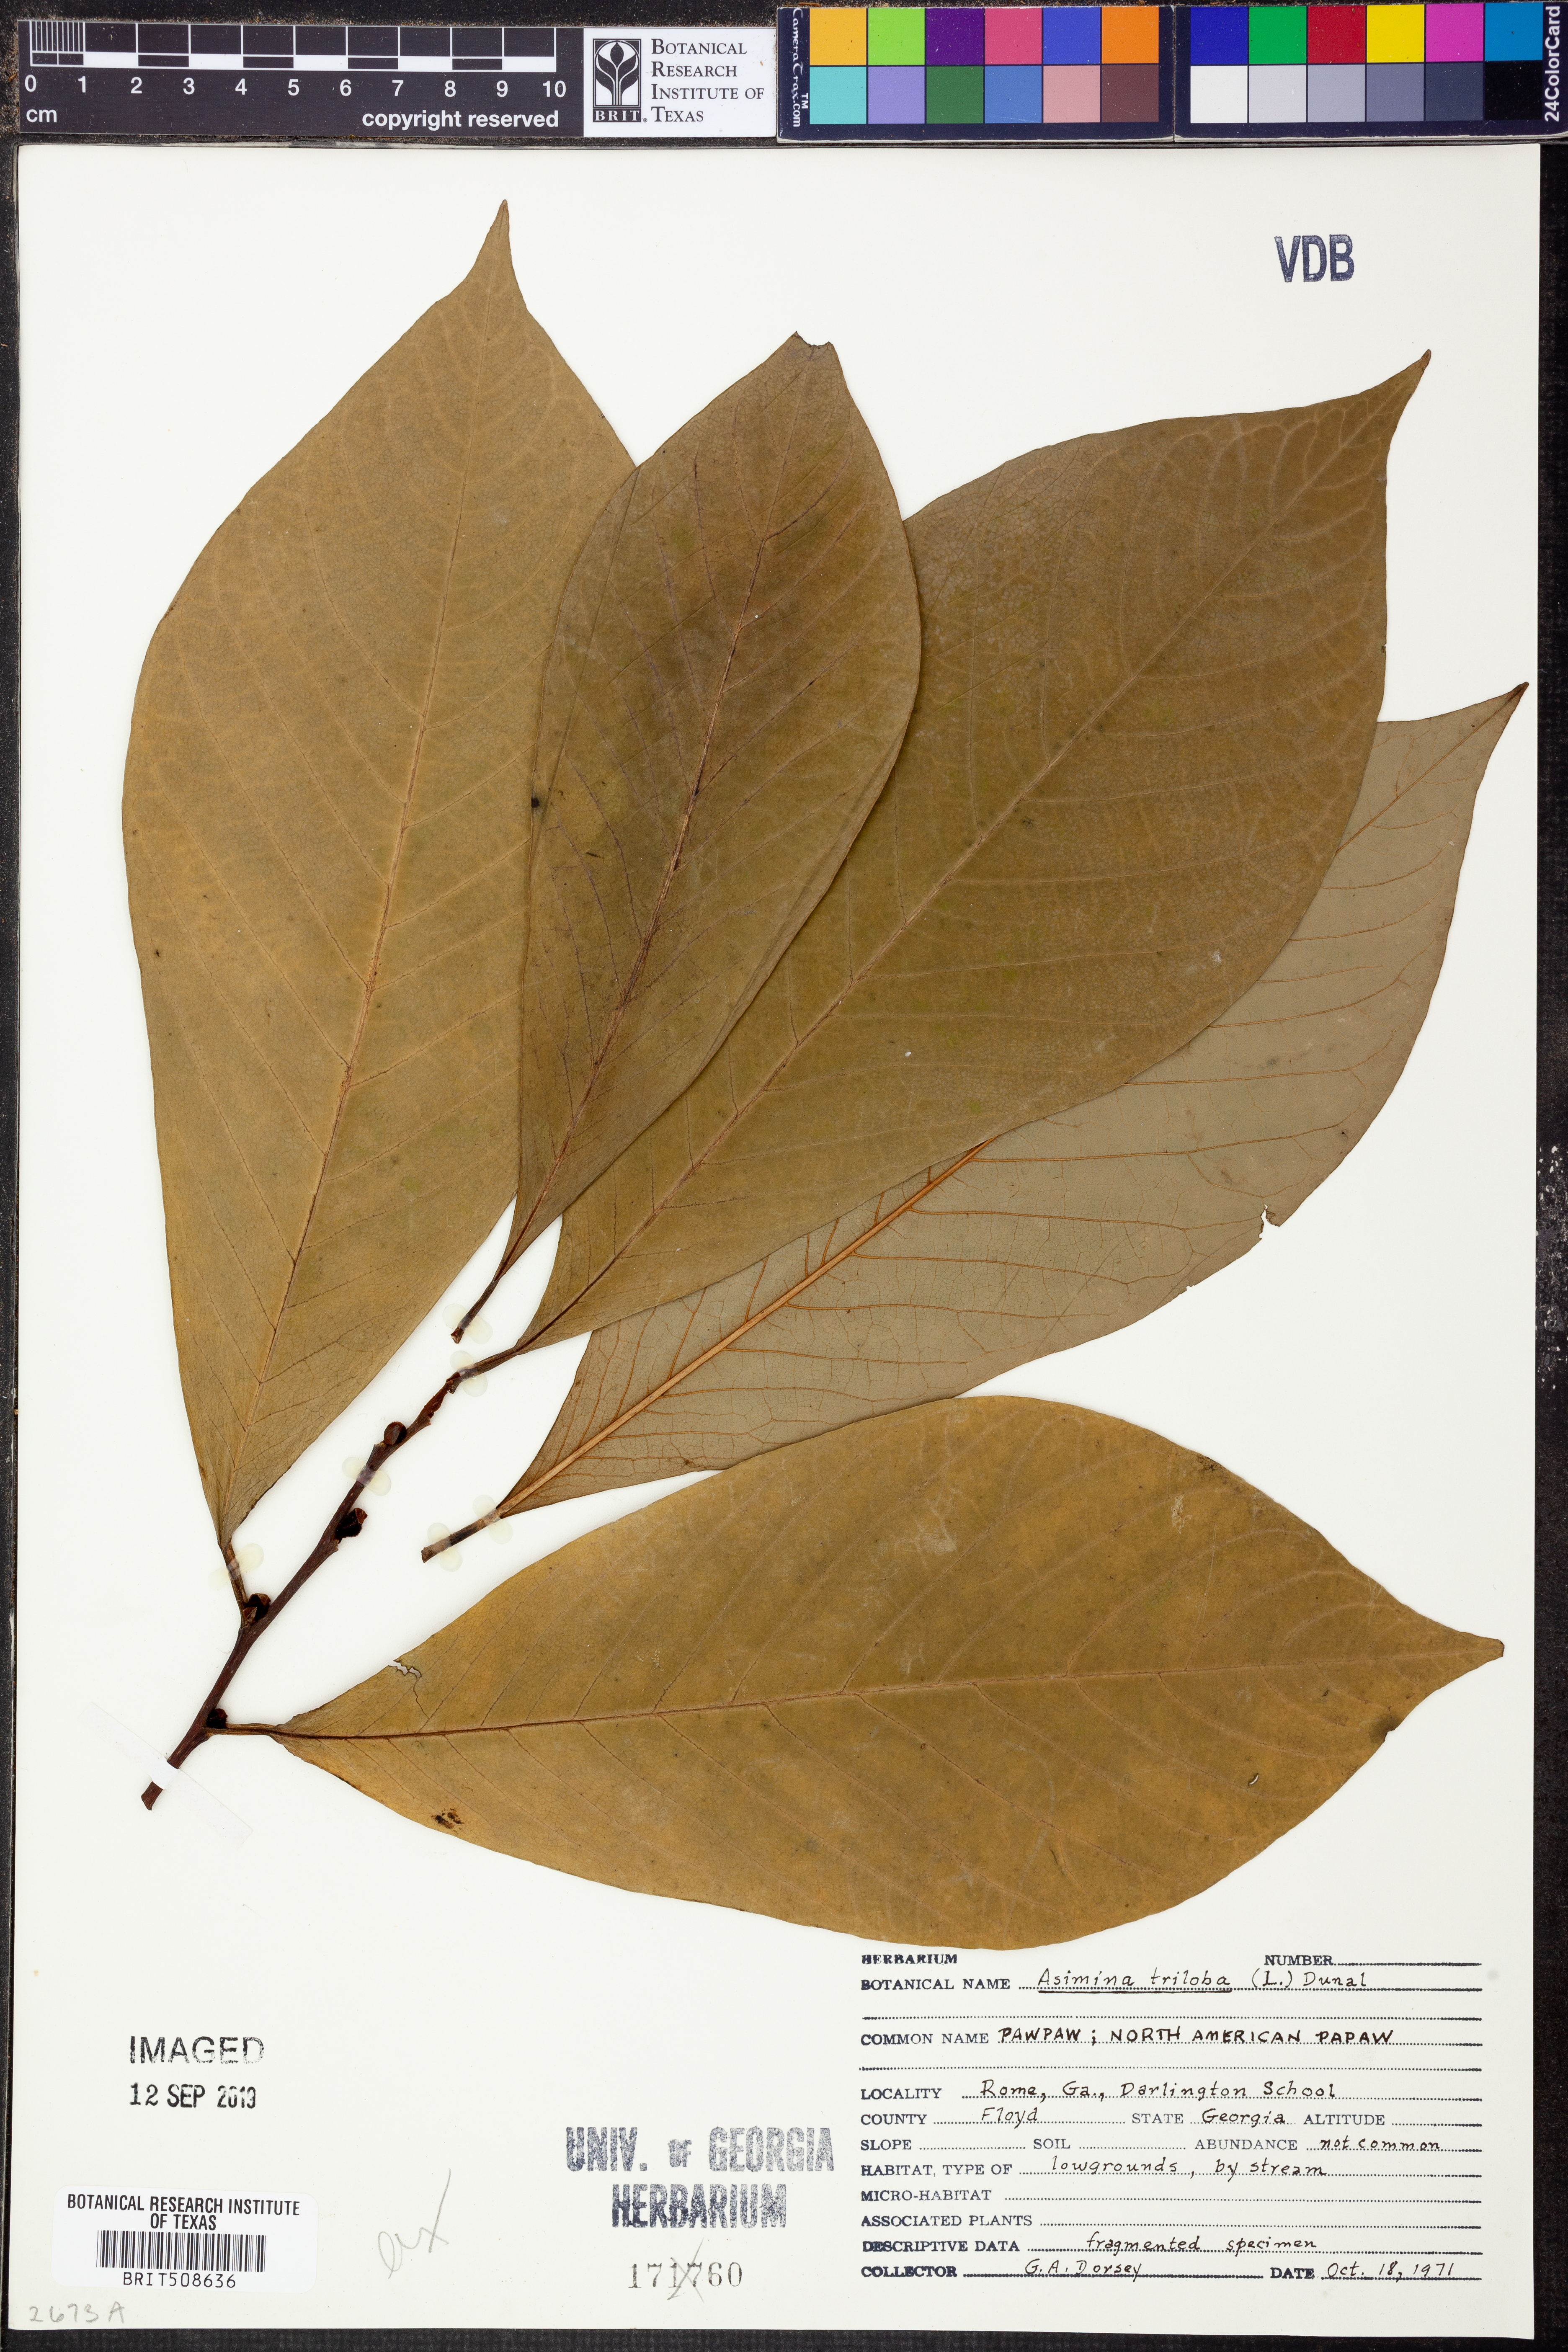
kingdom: Plantae
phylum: Tracheophyta
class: Magnoliopsida
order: Magnoliales
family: Annonaceae
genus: Asimina
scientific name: Asimina triloba
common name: Dog-banana
